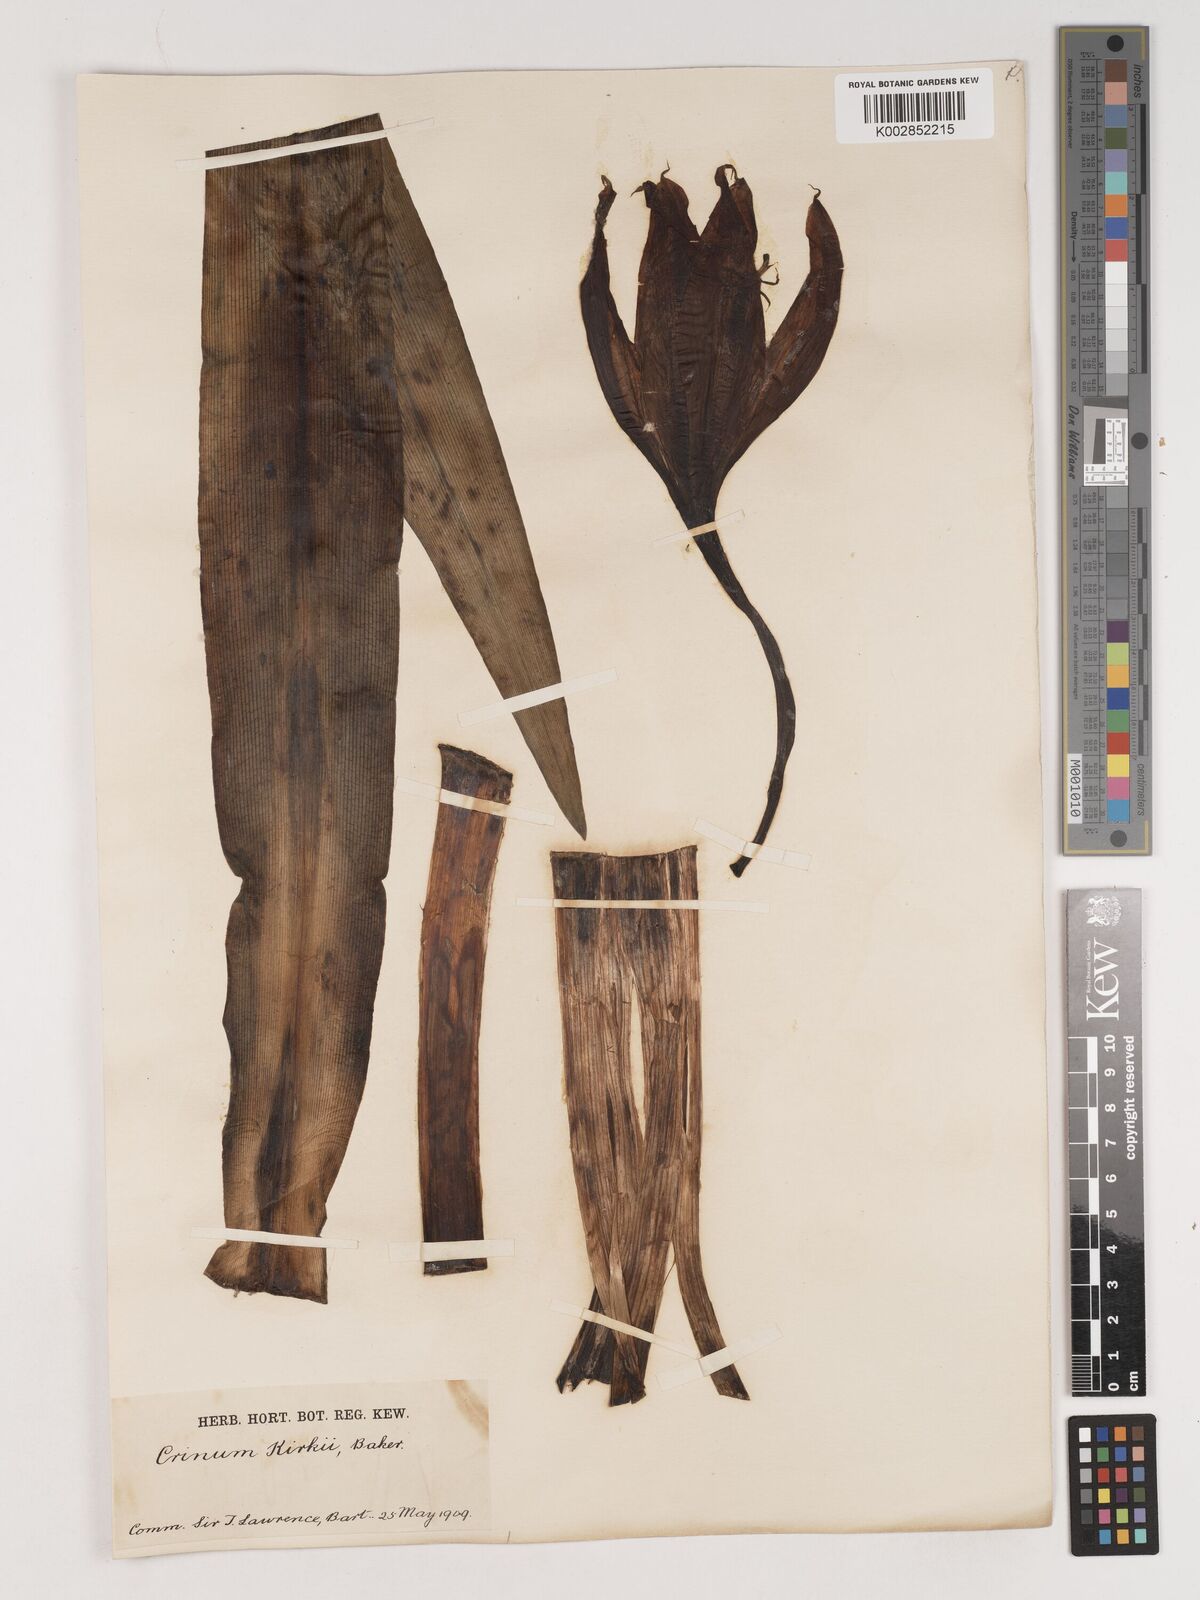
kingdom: Plantae
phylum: Tracheophyta
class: Liliopsida
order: Asparagales
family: Amaryllidaceae
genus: Crinum
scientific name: Crinum kirkii
